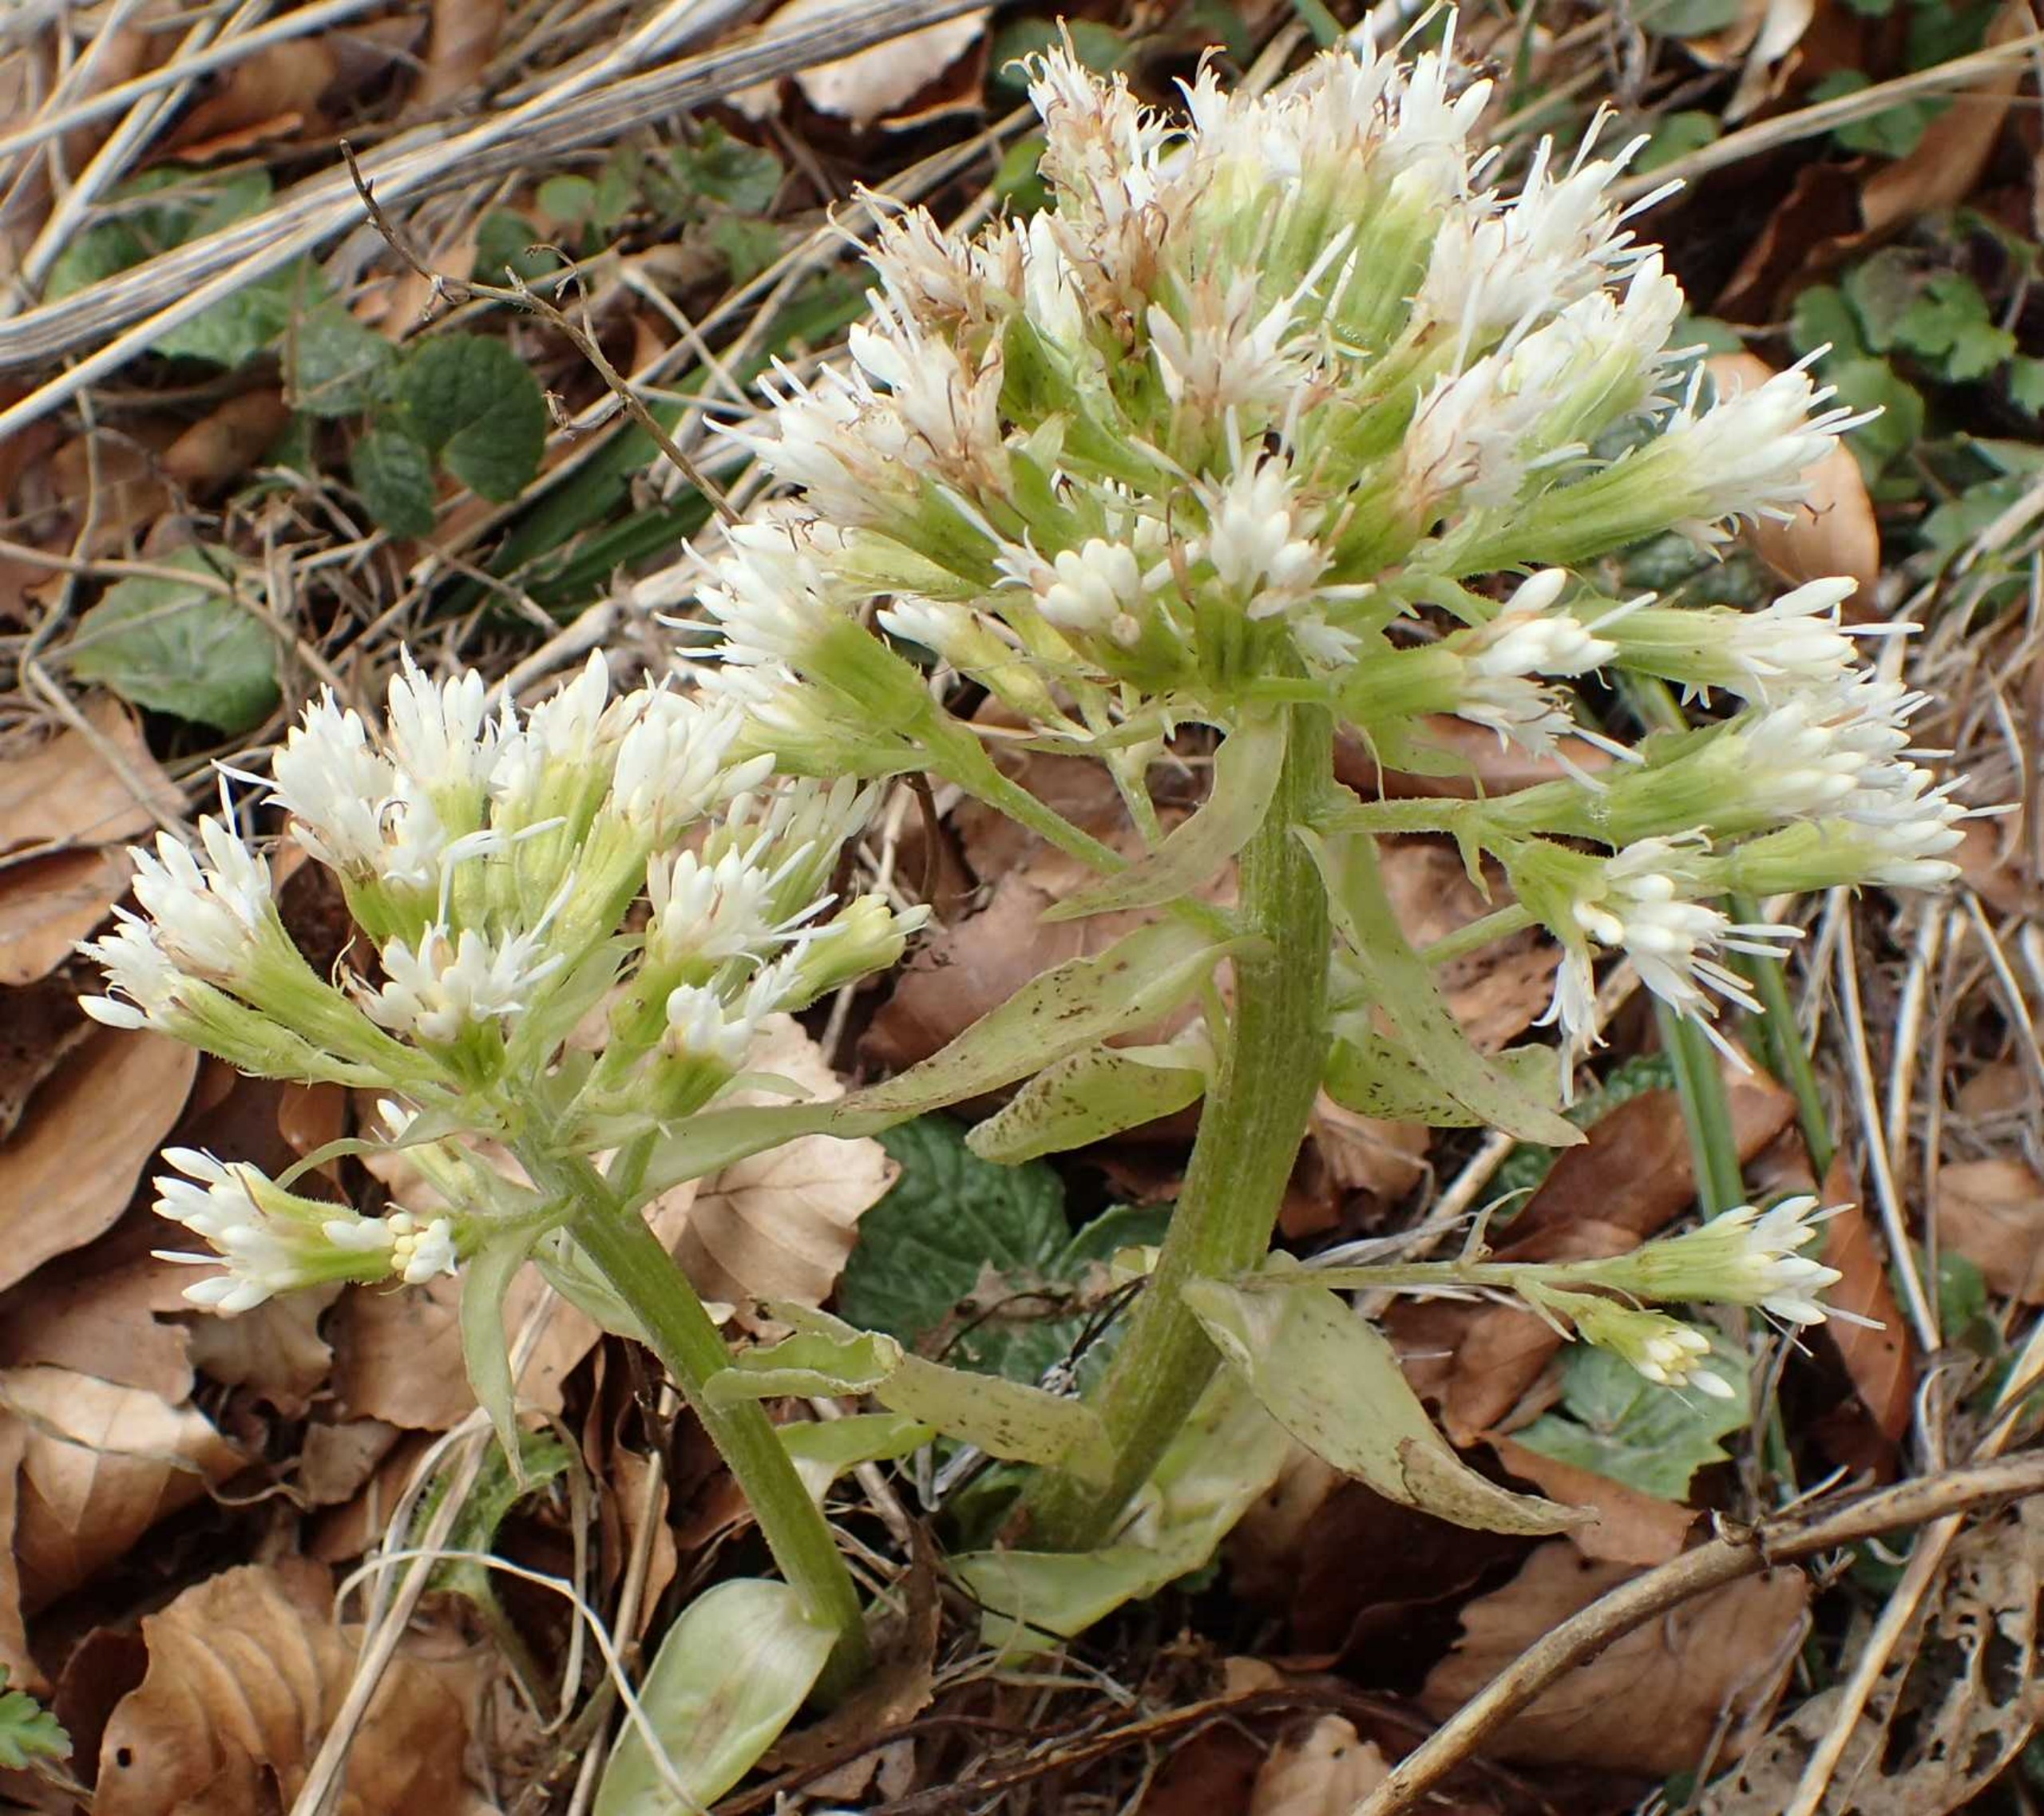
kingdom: Plantae
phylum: Tracheophyta
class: Magnoliopsida
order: Asterales
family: Asteraceae
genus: Petasites
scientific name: Petasites albus
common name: Hvid hestehov
